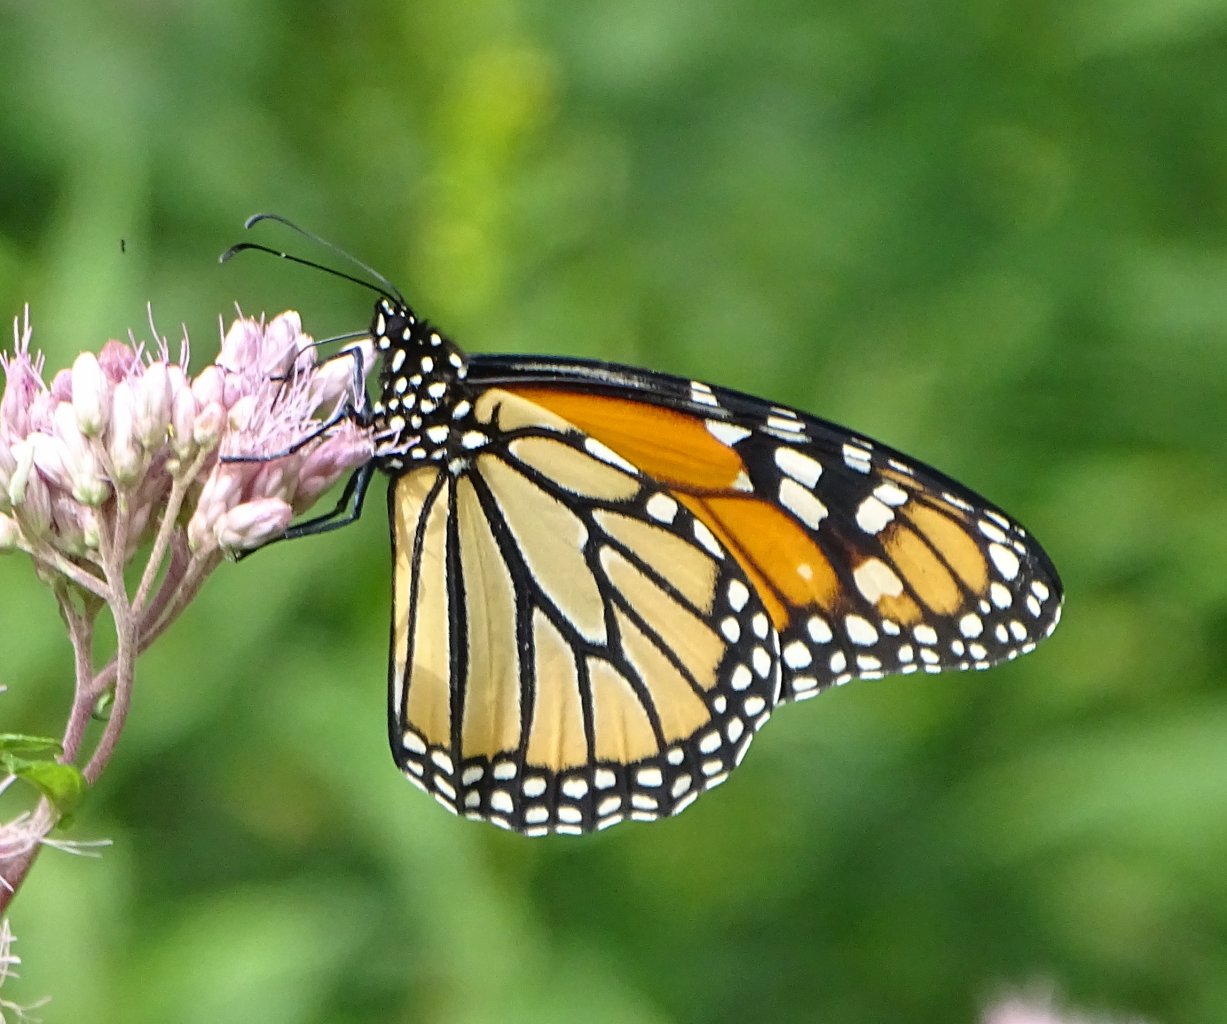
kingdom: Animalia
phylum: Arthropoda
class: Insecta
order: Lepidoptera
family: Nymphalidae
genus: Danaus
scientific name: Danaus plexippus
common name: Monarch
